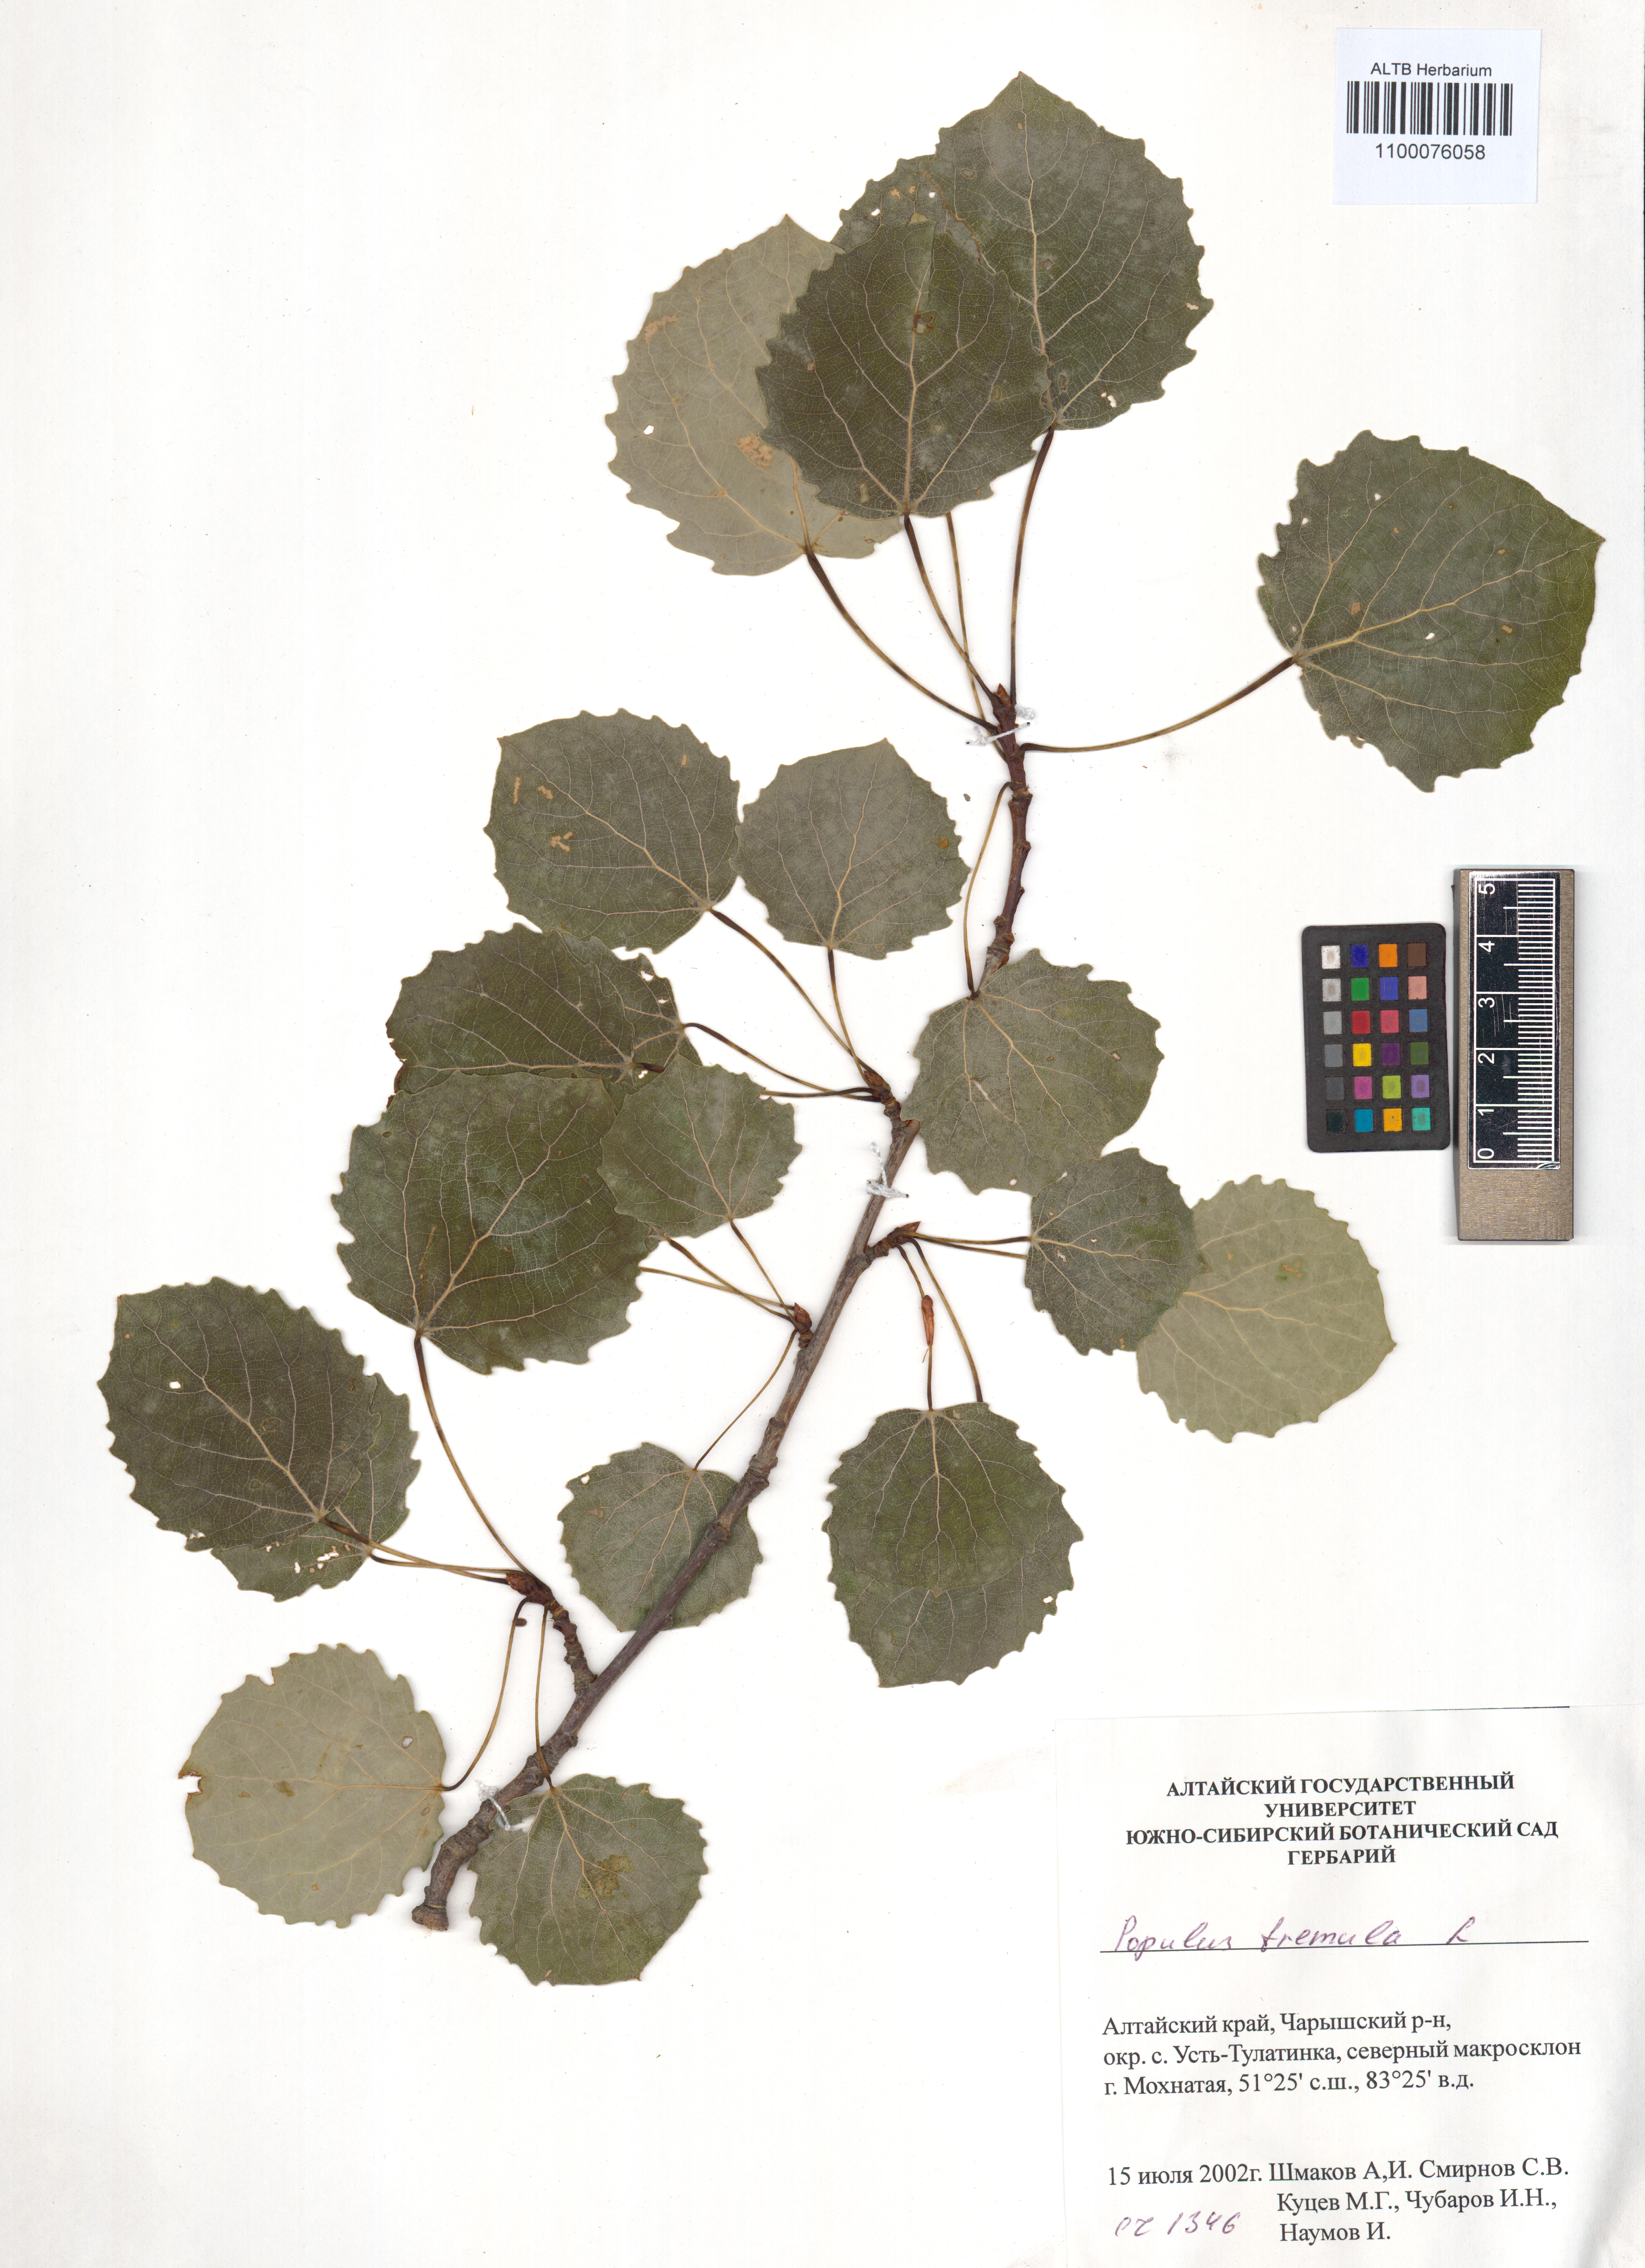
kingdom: Plantae
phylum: Tracheophyta
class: Magnoliopsida
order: Malpighiales
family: Salicaceae
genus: Populus
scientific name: Populus tremula
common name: European aspen
